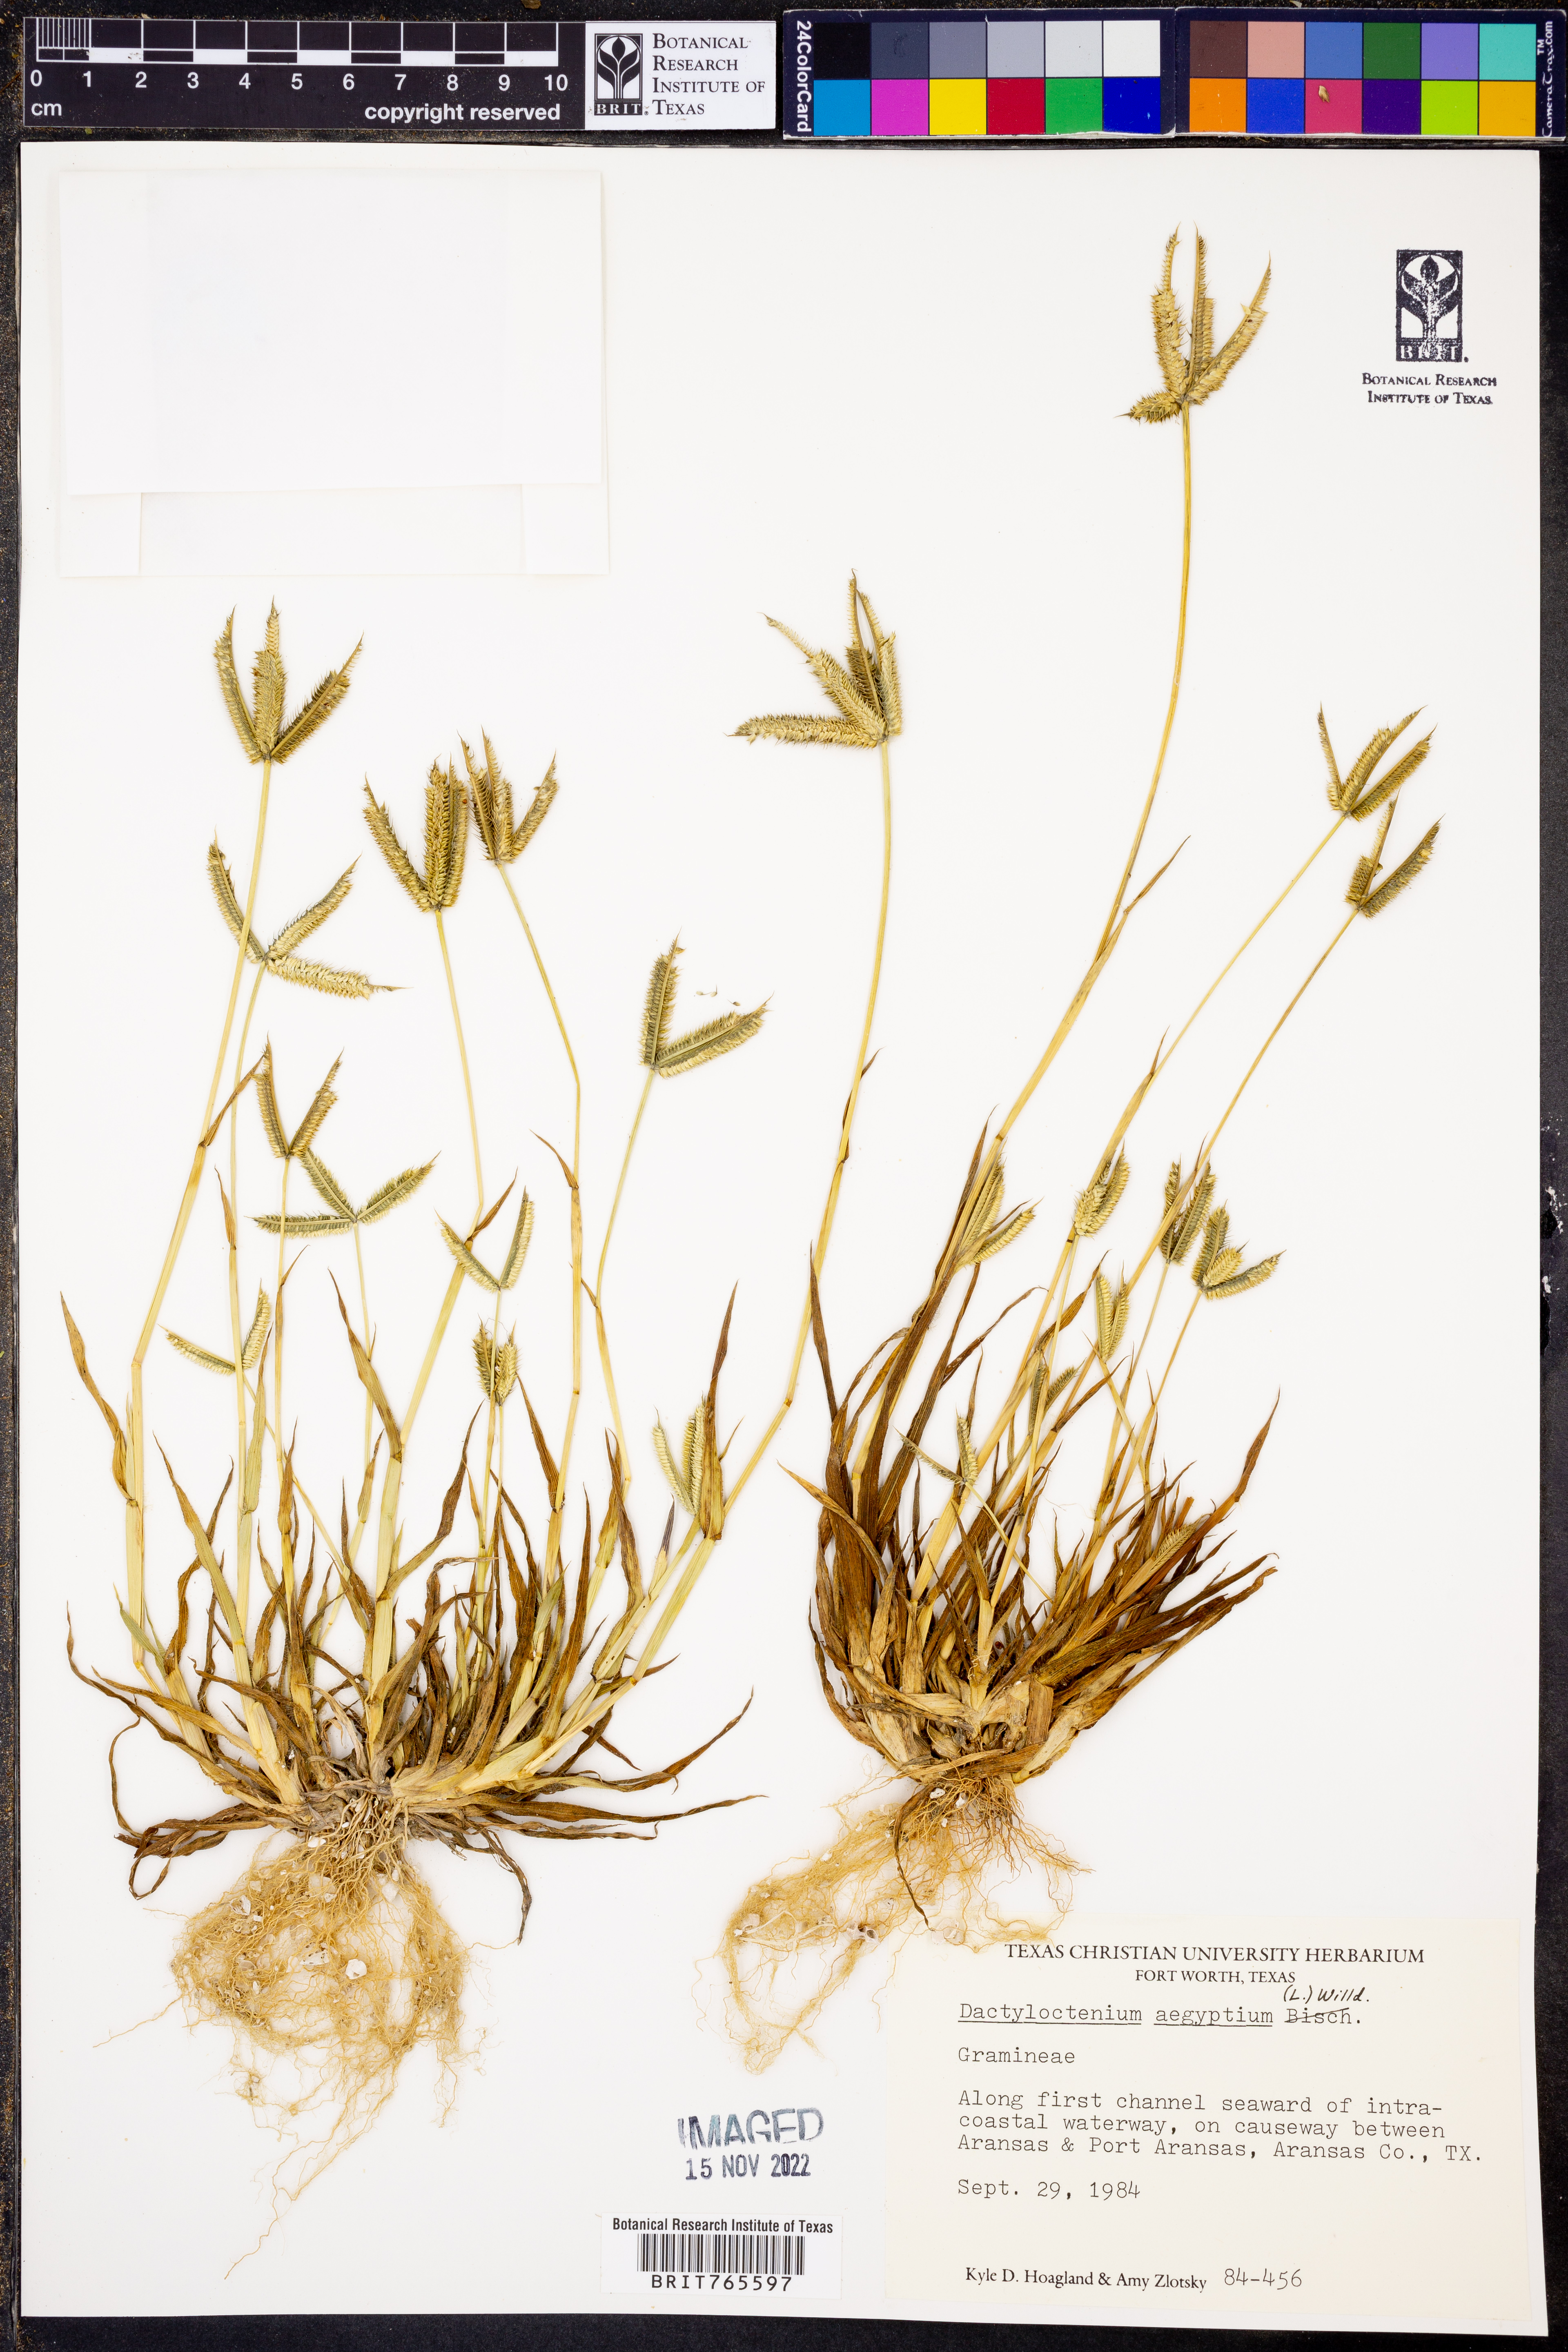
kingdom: Plantae
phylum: Tracheophyta
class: Liliopsida
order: Poales
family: Poaceae
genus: Dactyloctenium
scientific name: Dactyloctenium aegyptium
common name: Egyptian grass
